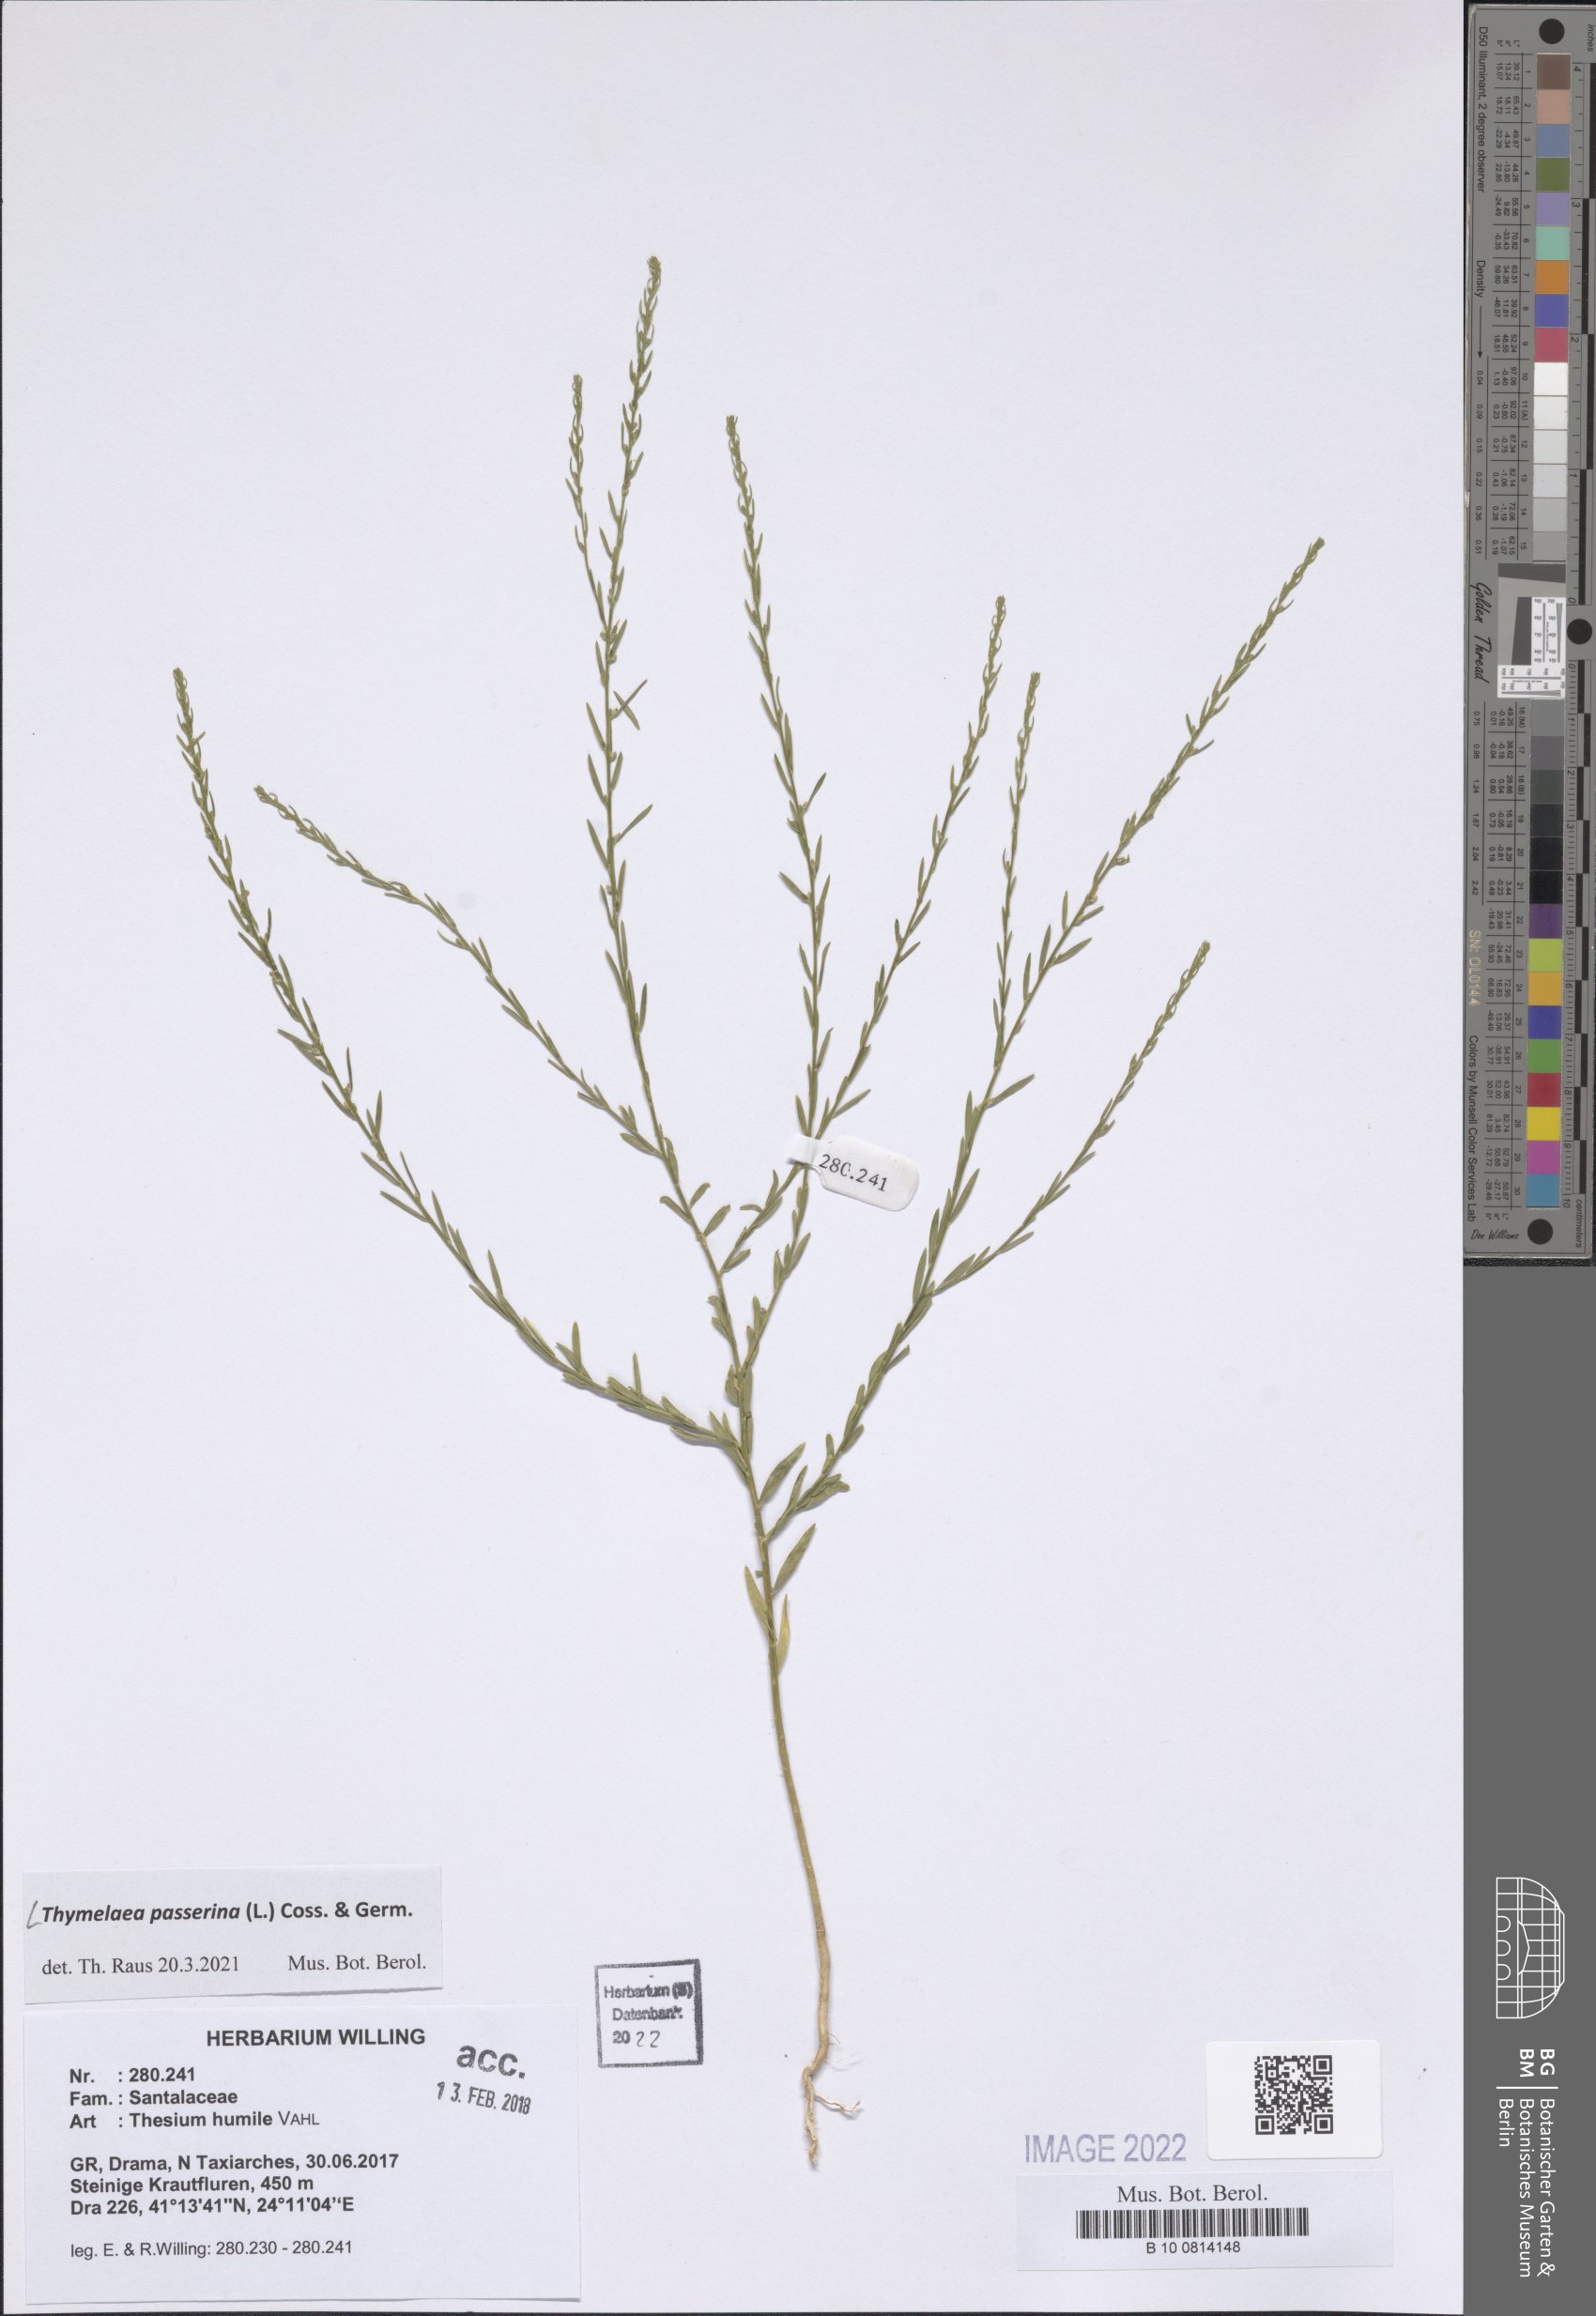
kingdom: Plantae
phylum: Tracheophyta
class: Magnoliopsida
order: Malvales
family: Thymelaeaceae
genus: Thymelaea
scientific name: Thymelaea passerina
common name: Annual thymelaea
